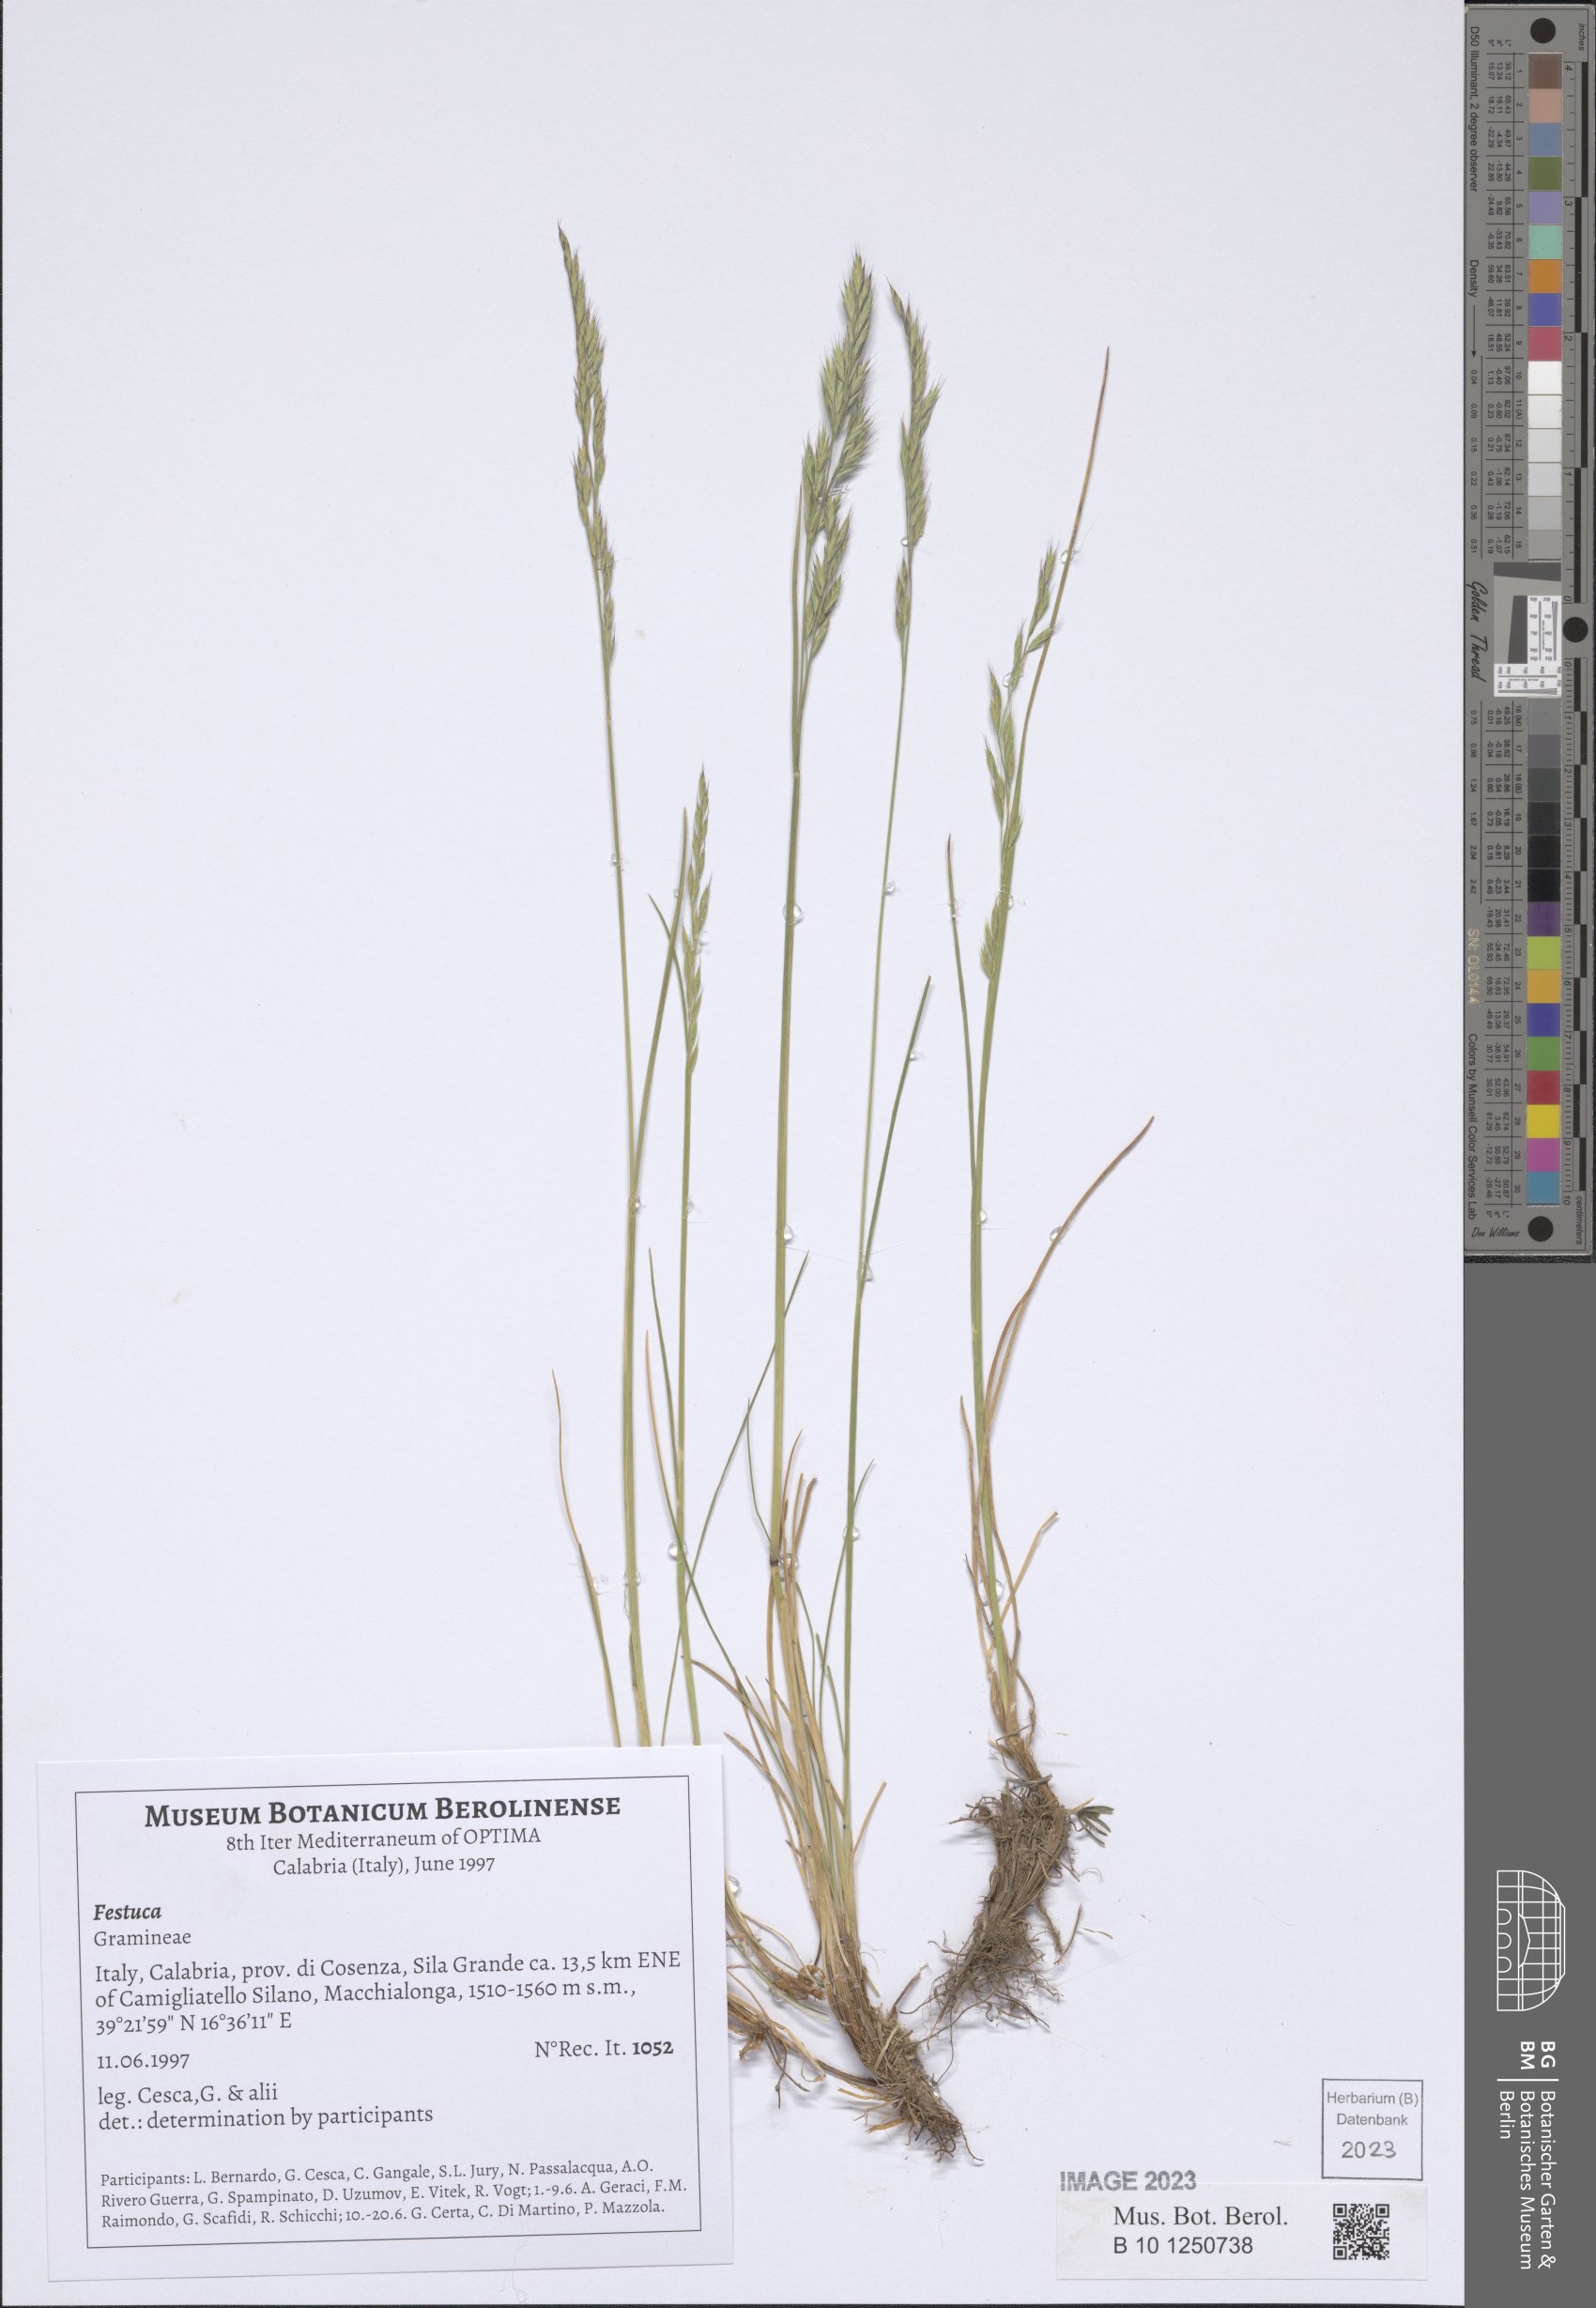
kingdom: Plantae
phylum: Tracheophyta
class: Liliopsida
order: Poales
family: Poaceae
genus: Festuca
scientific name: Festuca
